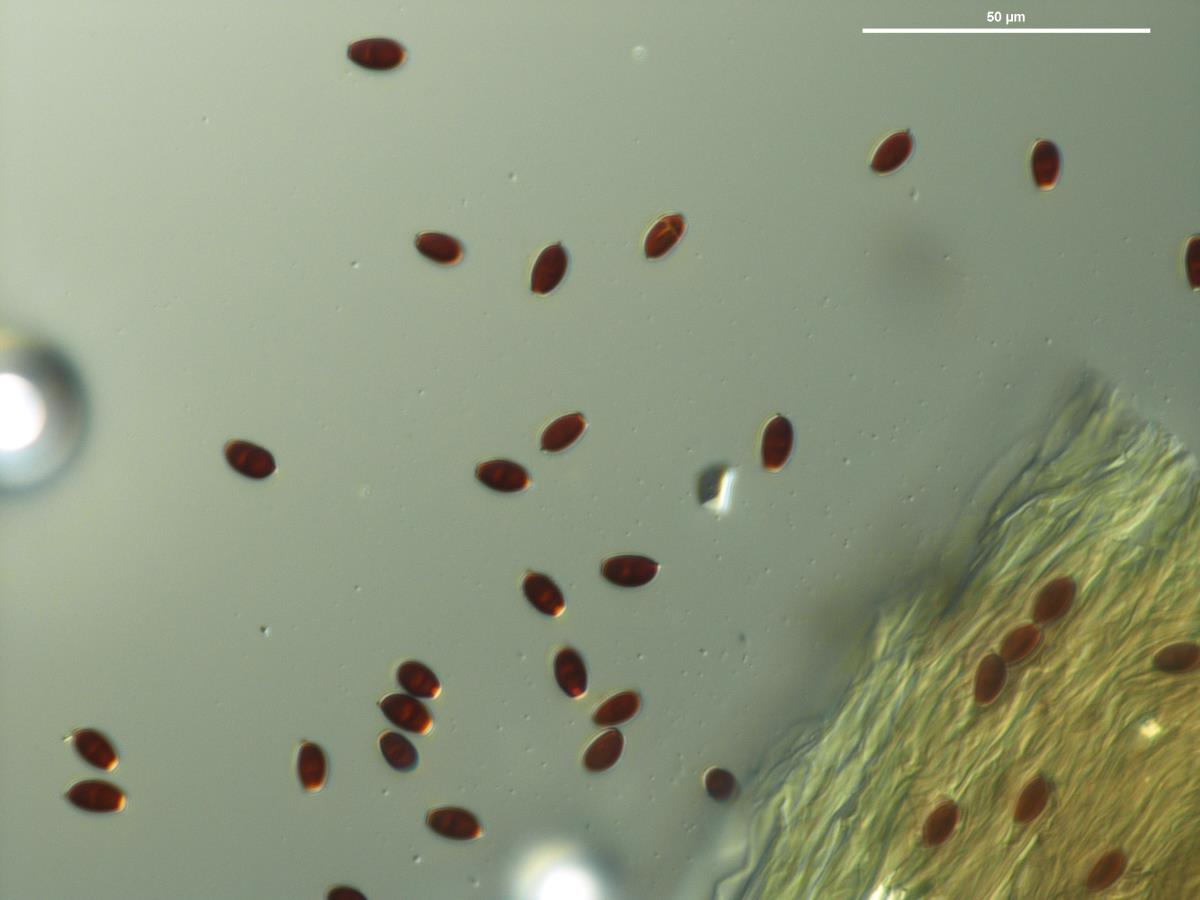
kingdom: Fungi
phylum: Basidiomycota
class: Agaricomycetes
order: Agaricales
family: Psathyrellaceae
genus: Parasola
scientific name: Parasola
